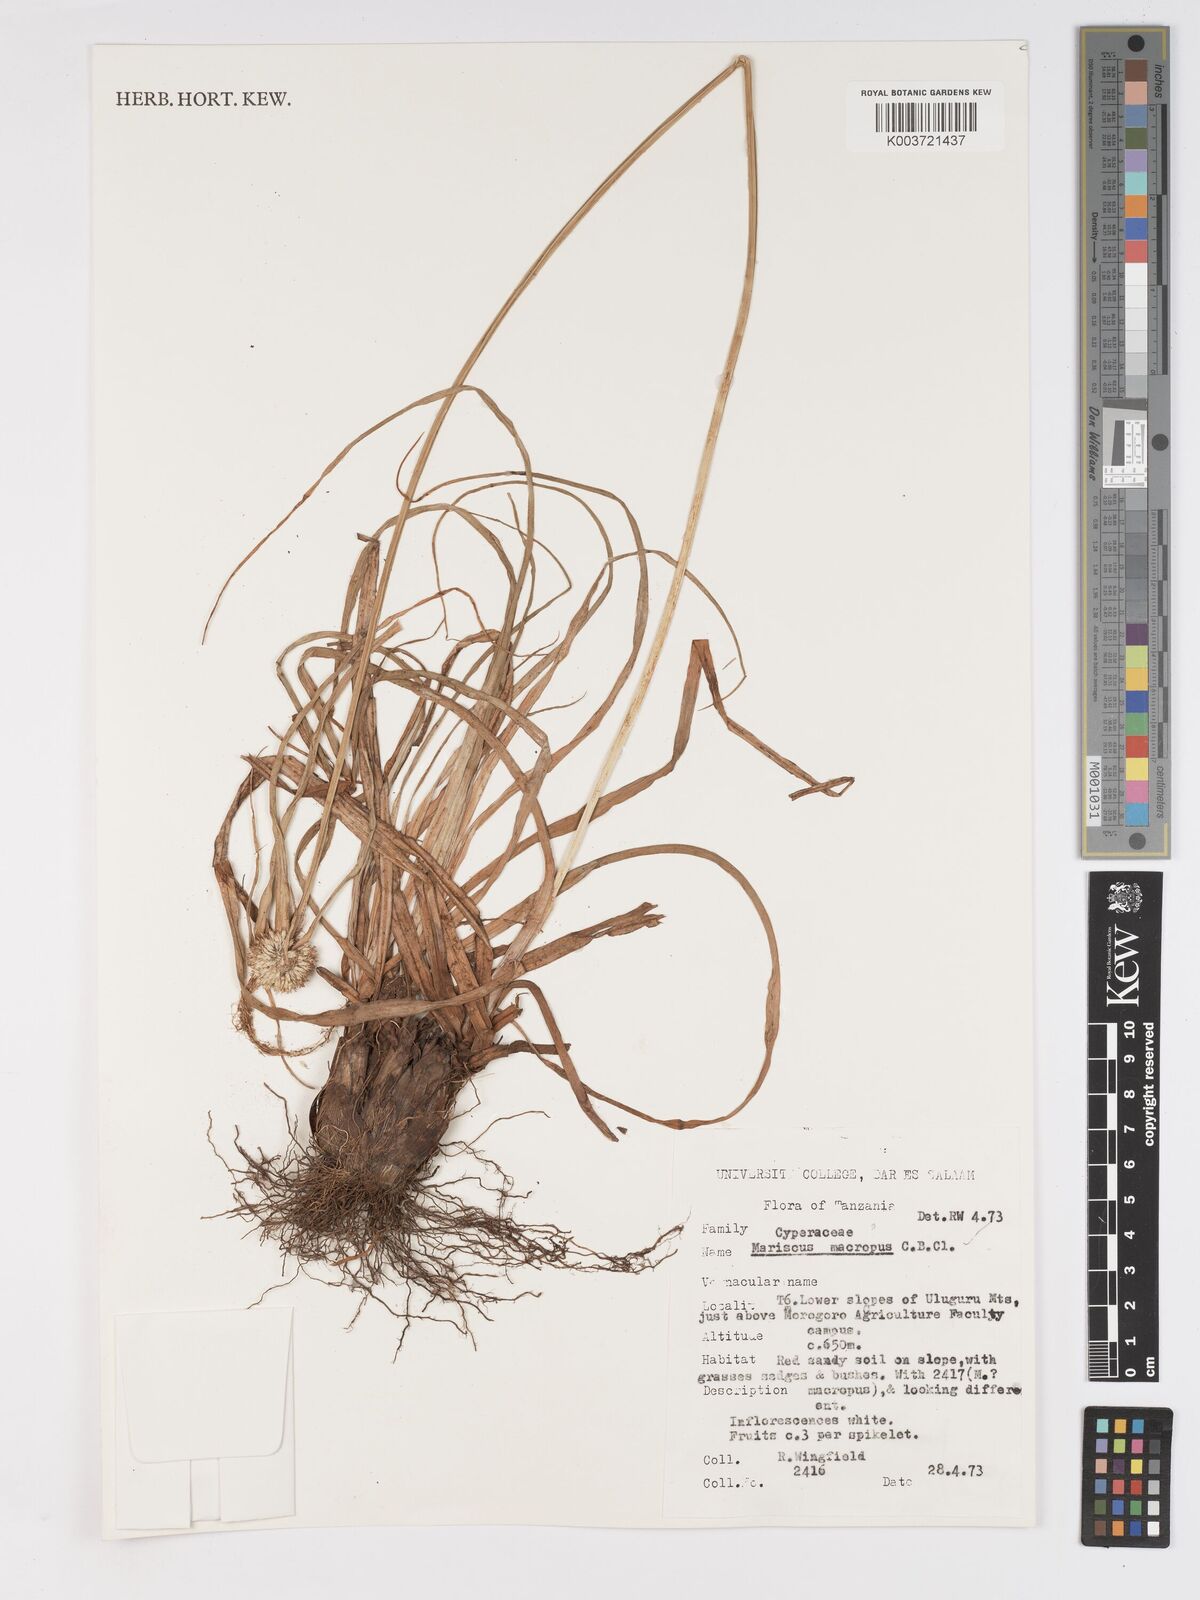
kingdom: Plantae
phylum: Tracheophyta
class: Liliopsida
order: Poales
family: Cyperaceae
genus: Cyperus
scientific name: Cyperus mollipes
